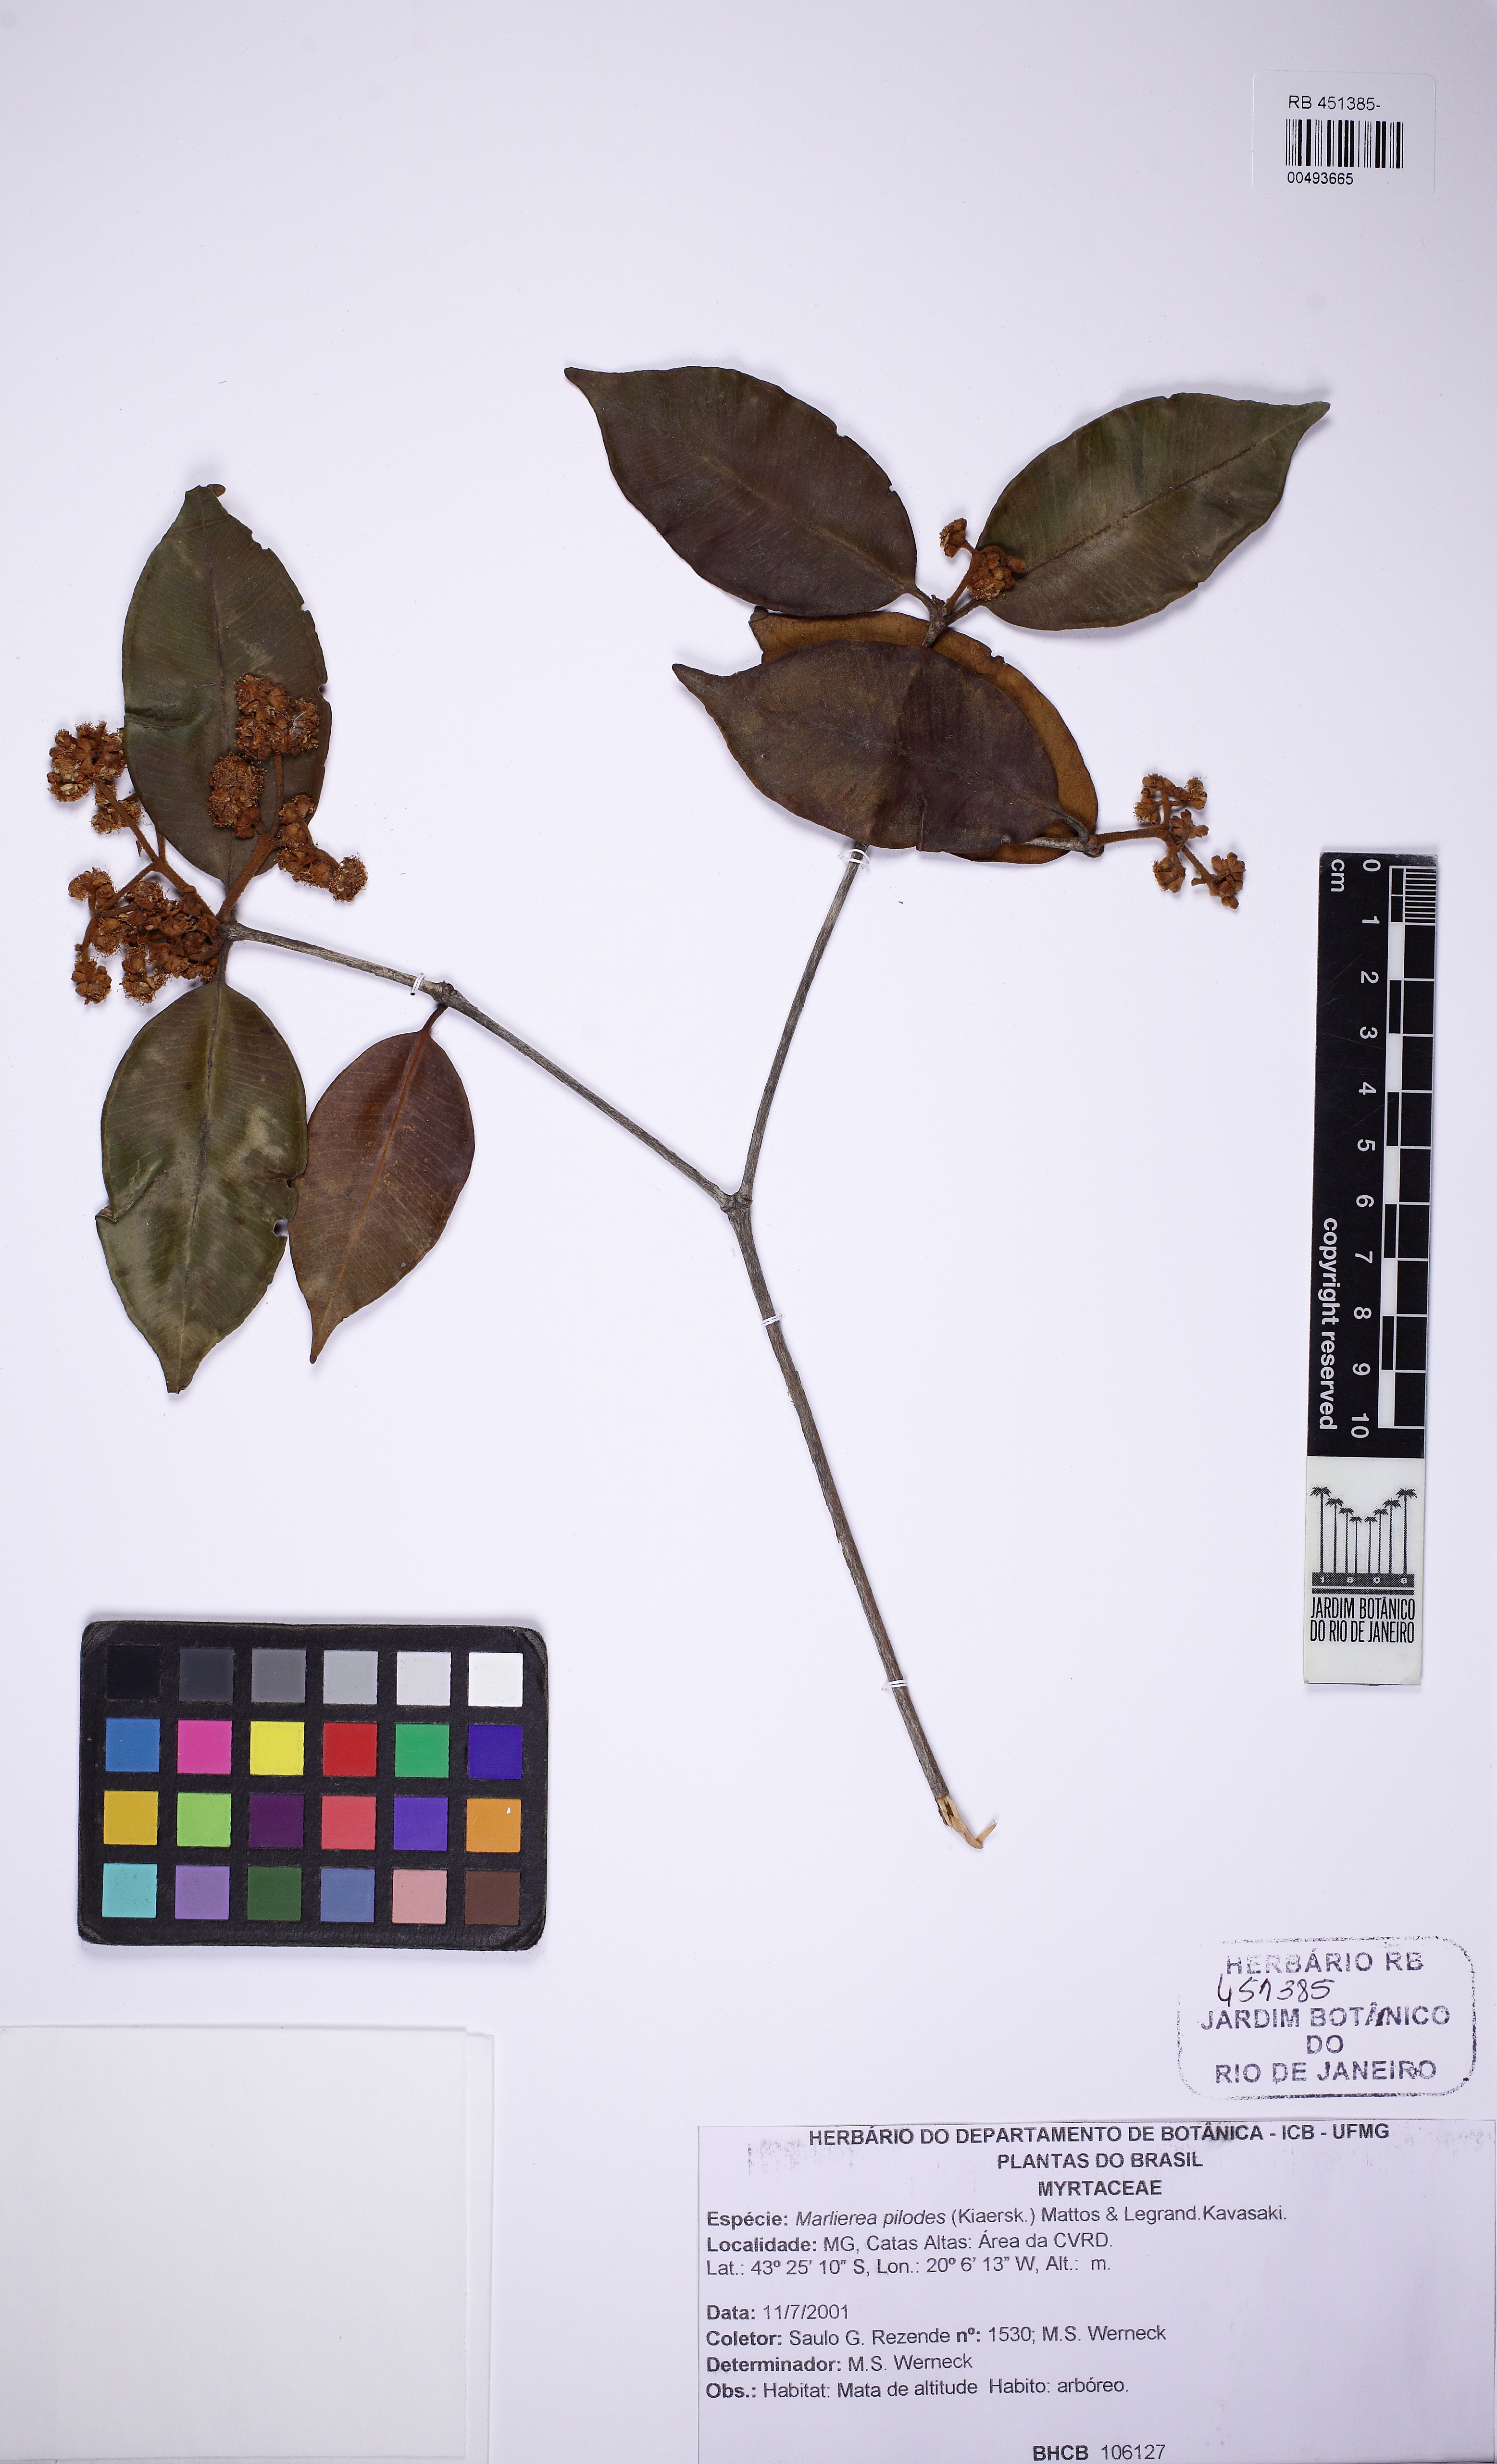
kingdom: Plantae
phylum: Tracheophyta
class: Magnoliopsida
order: Myrtales
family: Myrtaceae
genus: Myrcia
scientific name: Myrcia mutabilis
